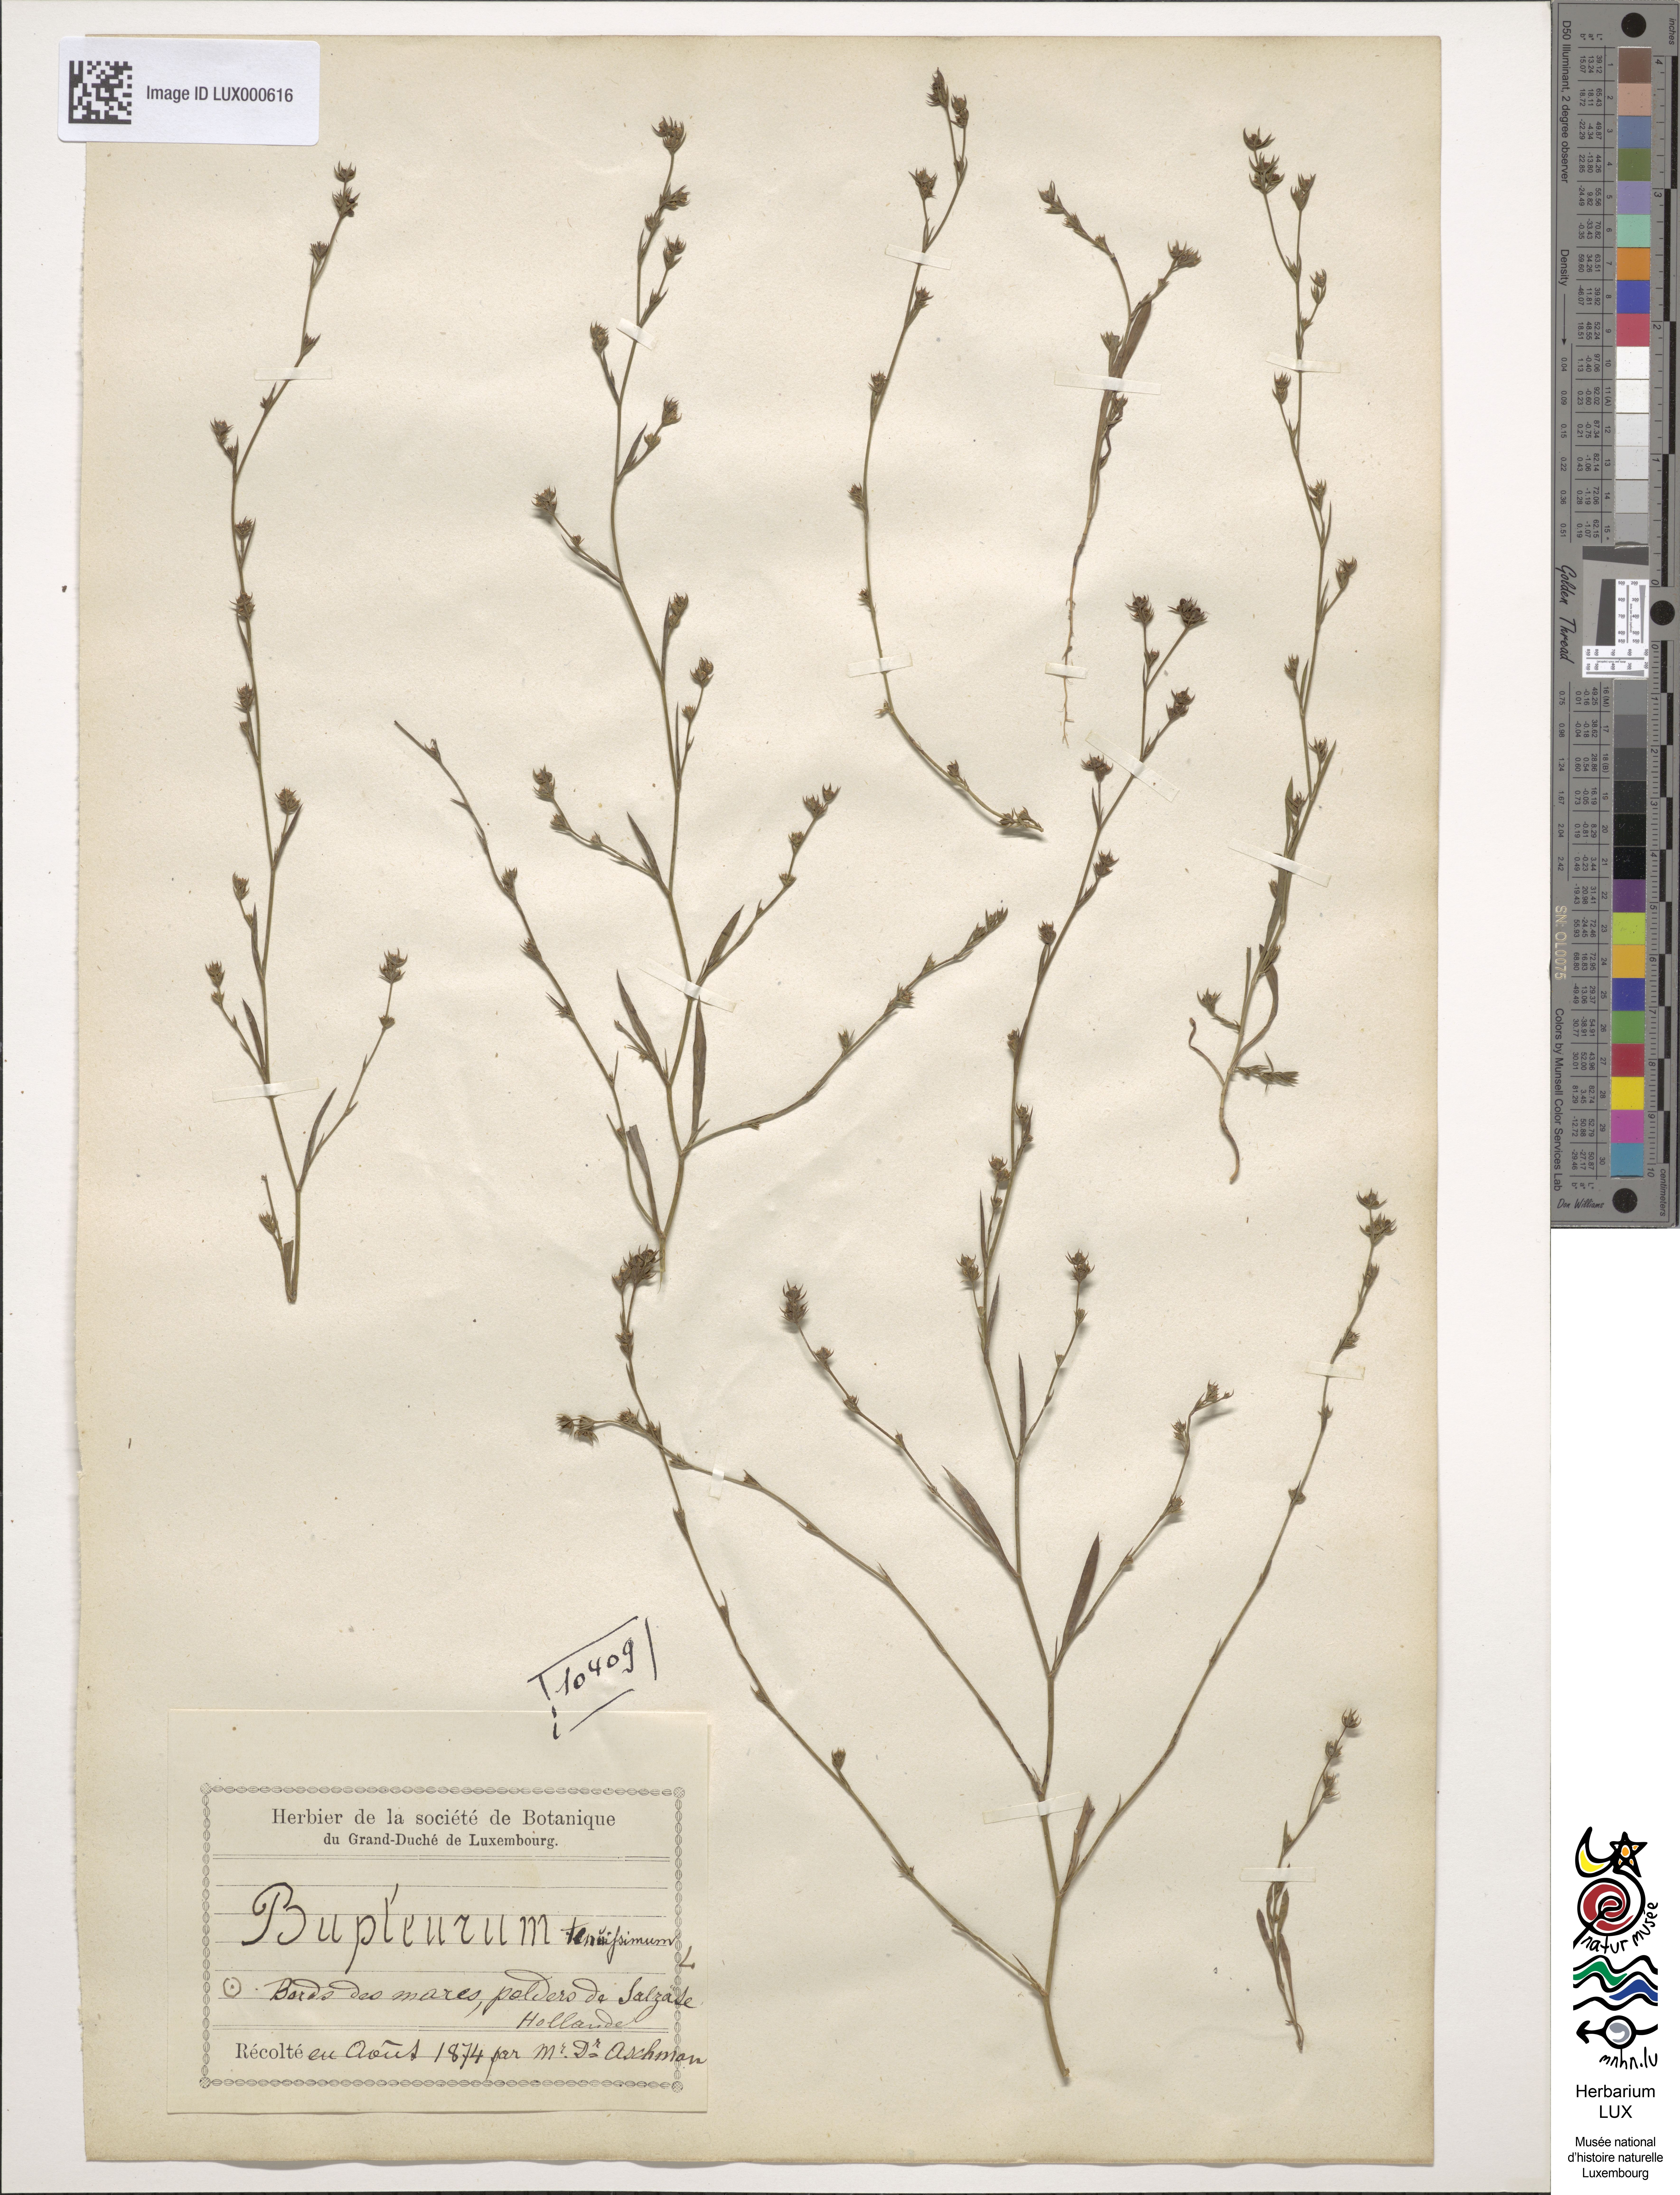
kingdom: Plantae
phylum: Tracheophyta
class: Magnoliopsida
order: Apiales
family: Apiaceae
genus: Bupleurum
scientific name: Bupleurum tenuissimum
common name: Slender hare's-ear
